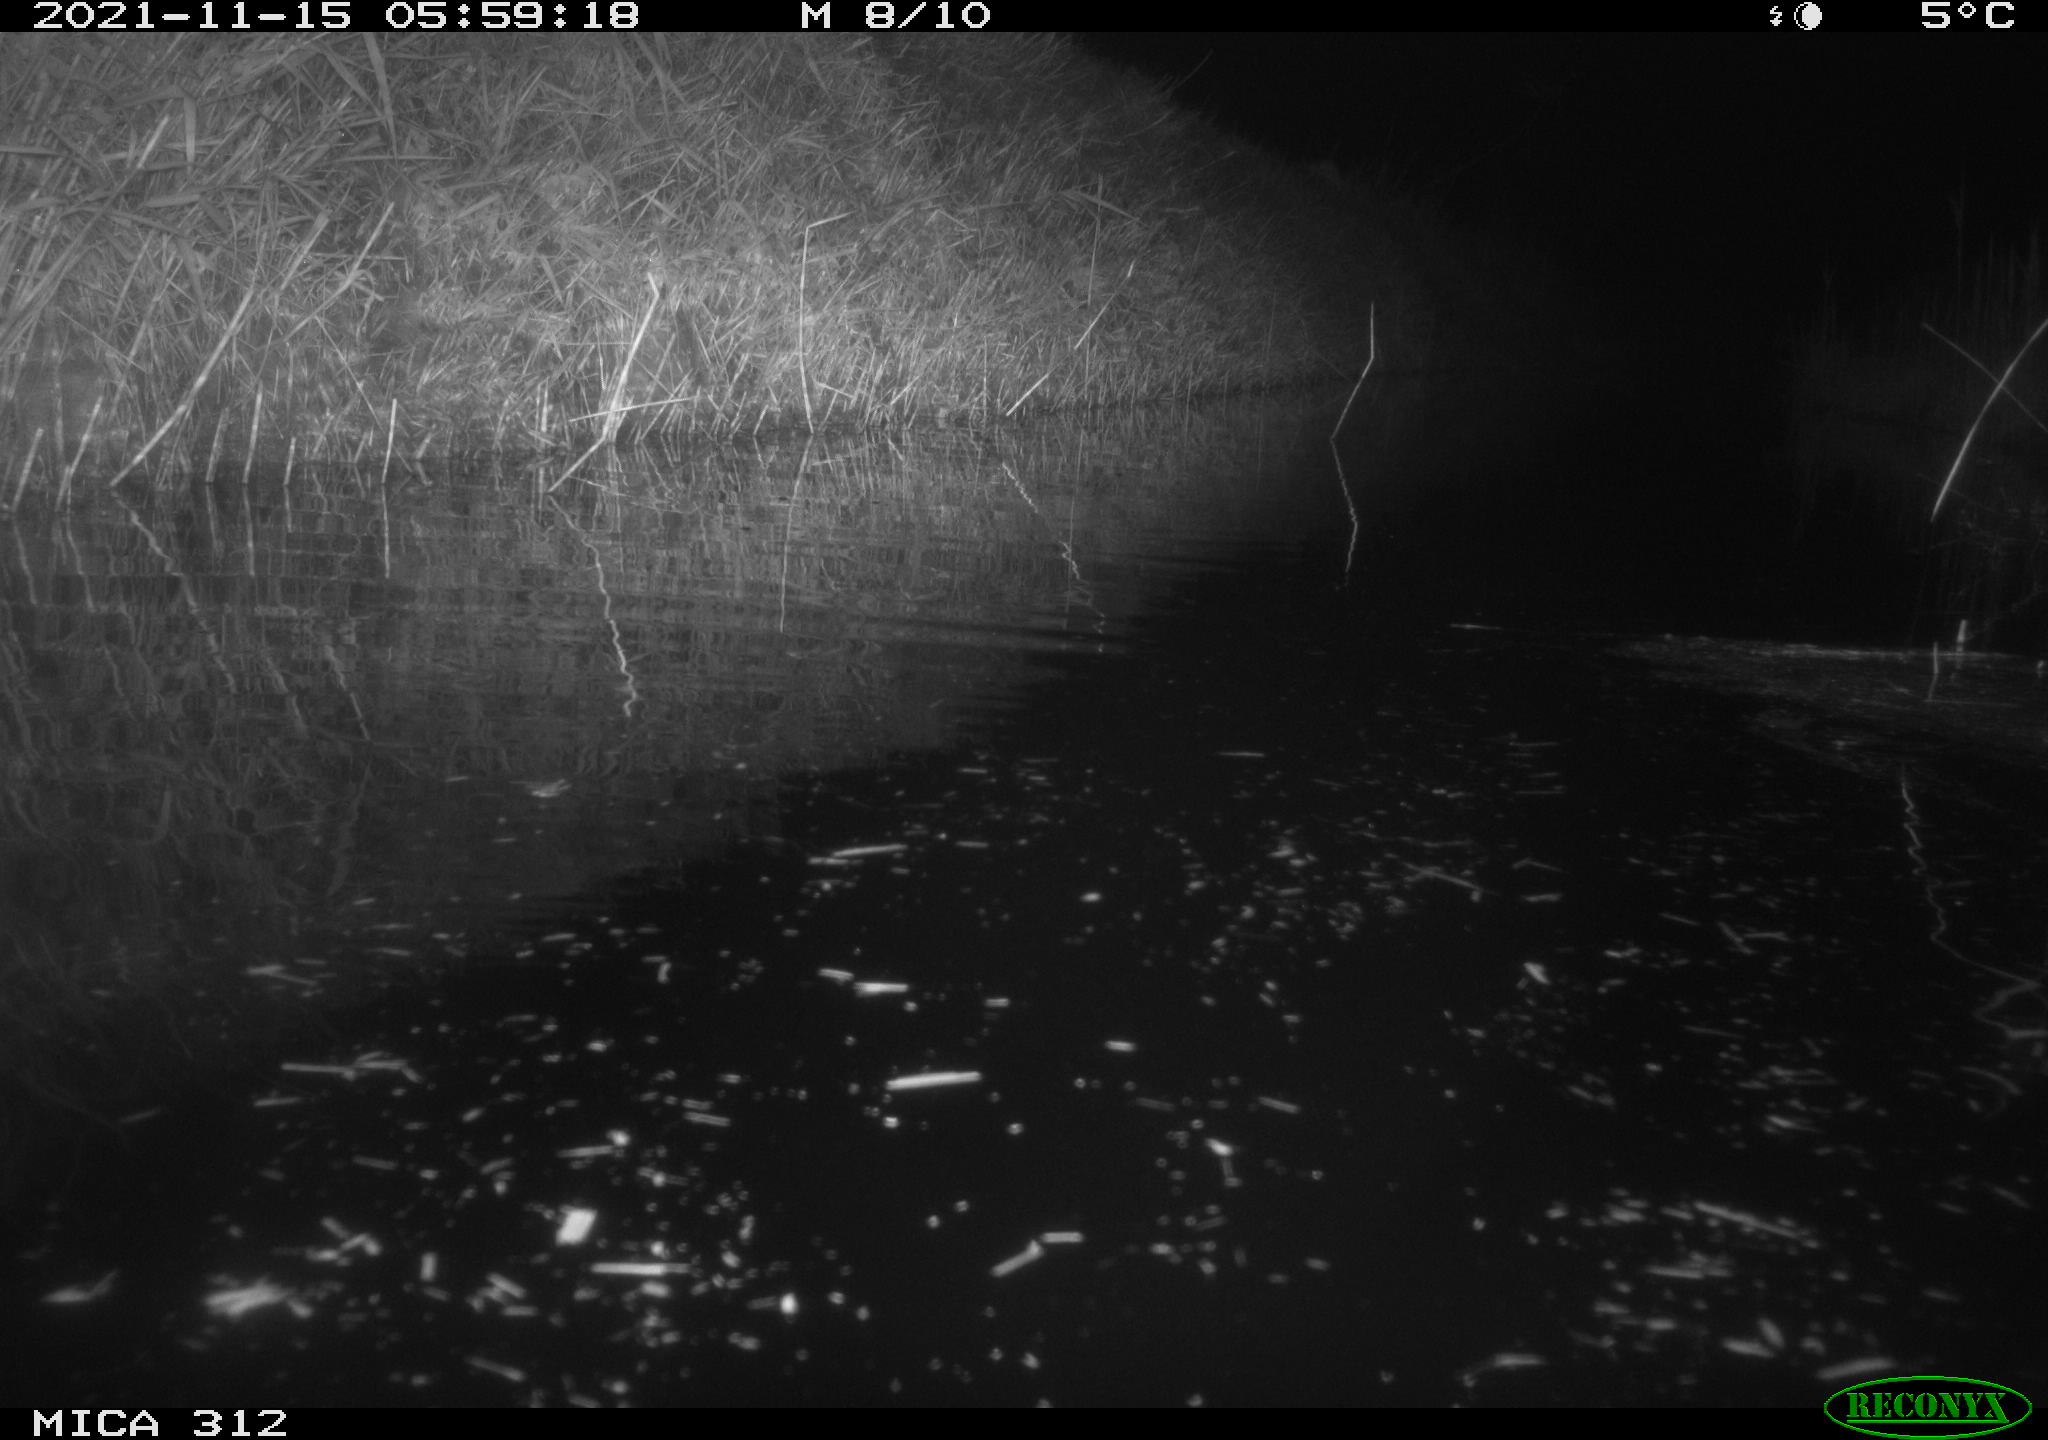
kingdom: Animalia
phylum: Chordata
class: Mammalia
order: Rodentia
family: Muridae
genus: Rattus
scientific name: Rattus norvegicus
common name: Brown rat
